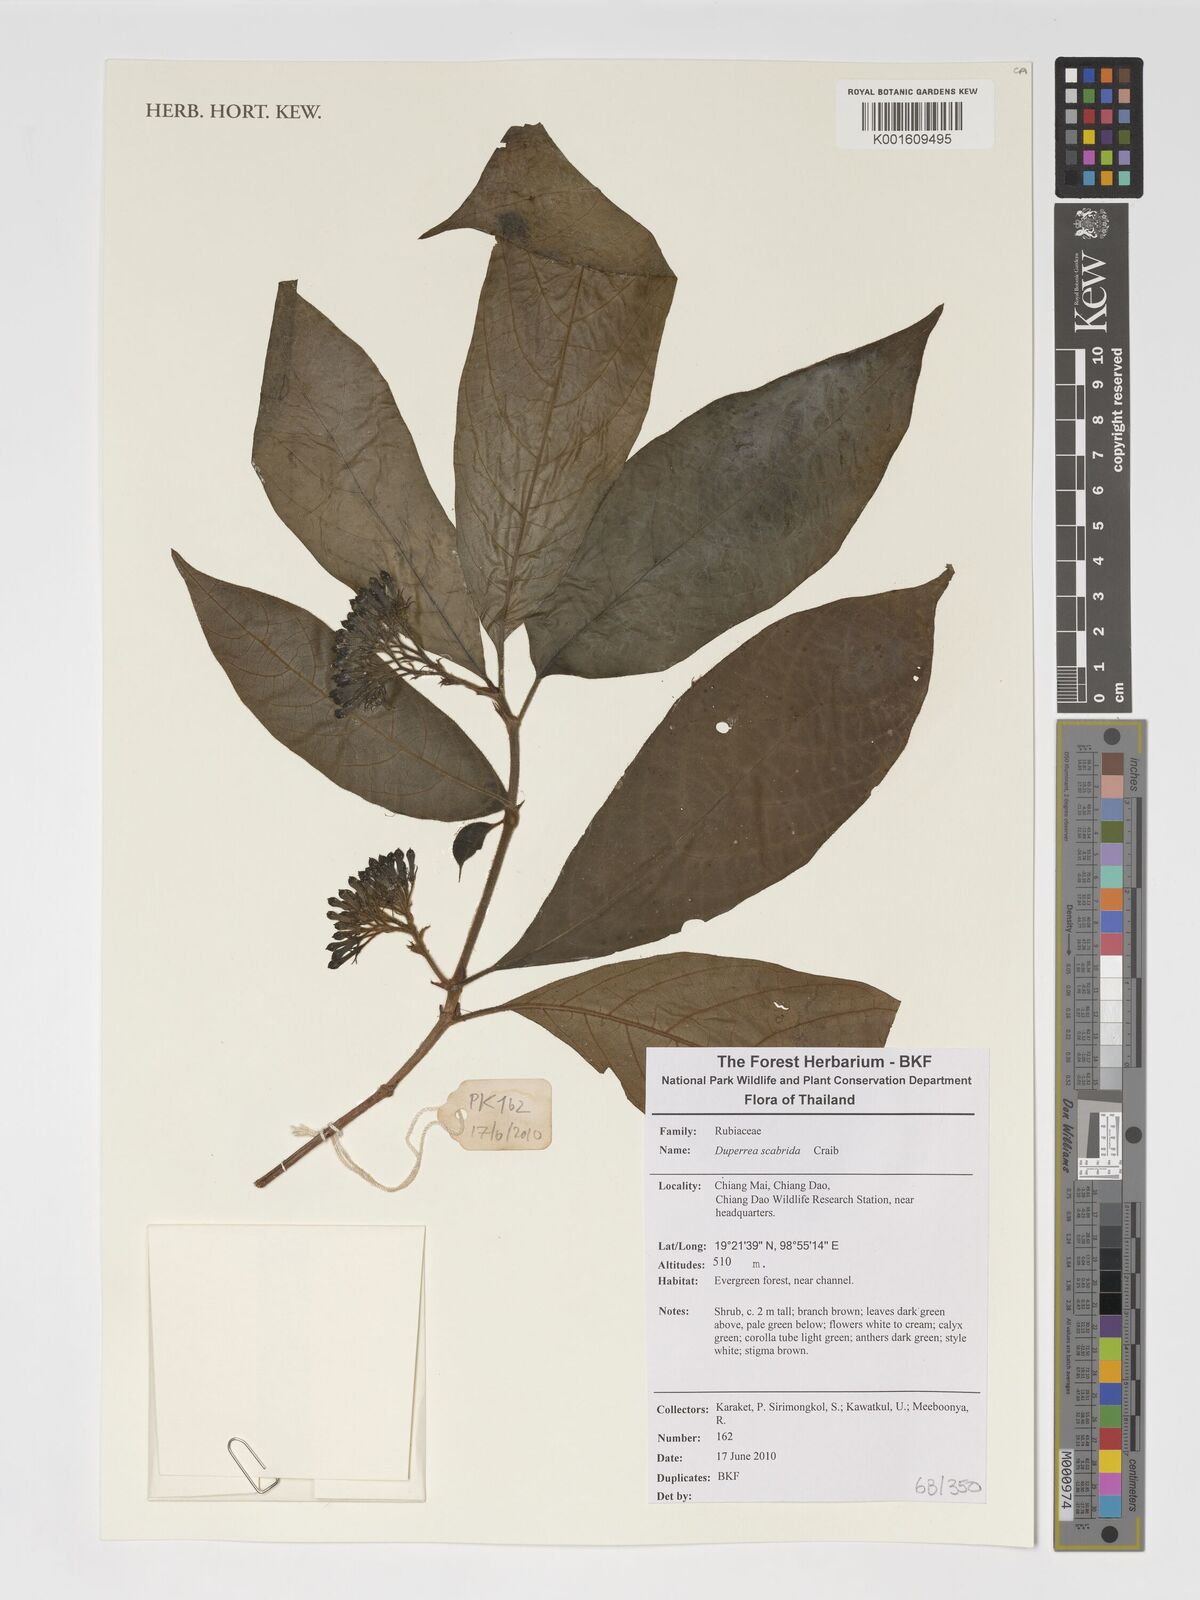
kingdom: Plantae
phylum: Tracheophyta
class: Magnoliopsida
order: Gentianales
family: Rubiaceae
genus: Duperrea
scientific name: Duperrea pavettifolia
